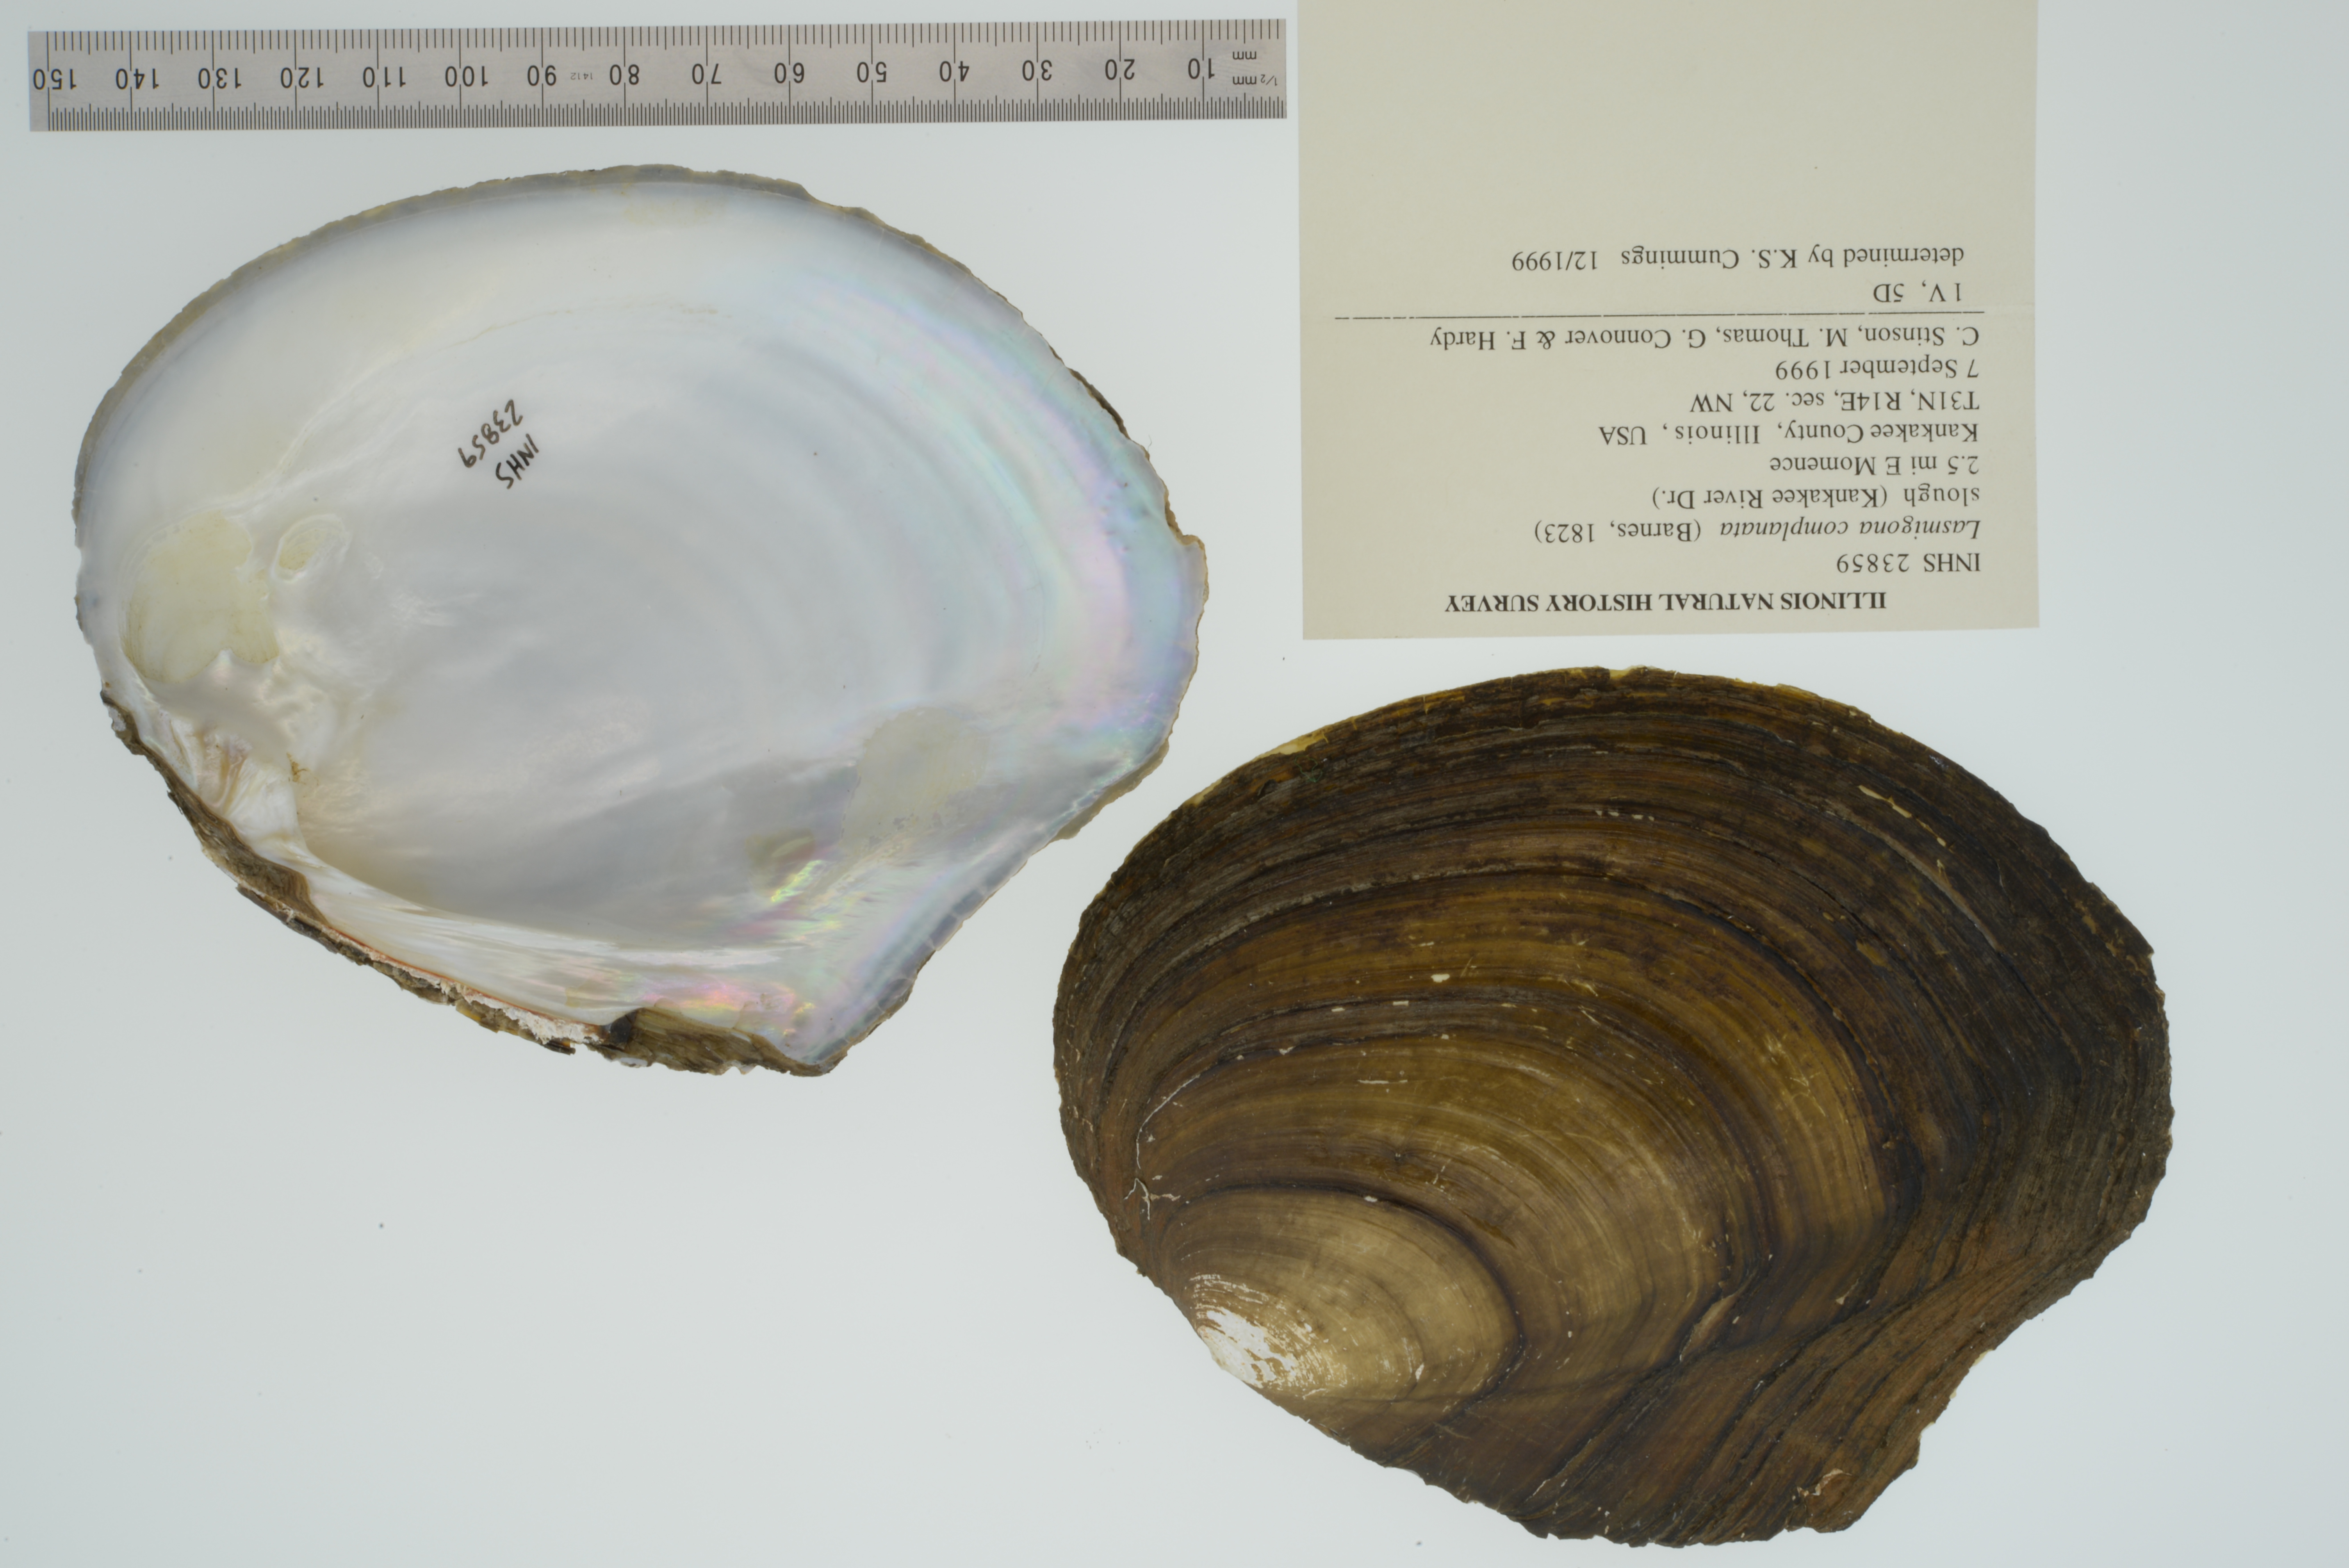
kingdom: Animalia
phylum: Mollusca
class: Bivalvia
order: Unionida
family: Unionidae
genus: Lasmigona
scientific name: Lasmigona complanata
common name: White heelsplitter
